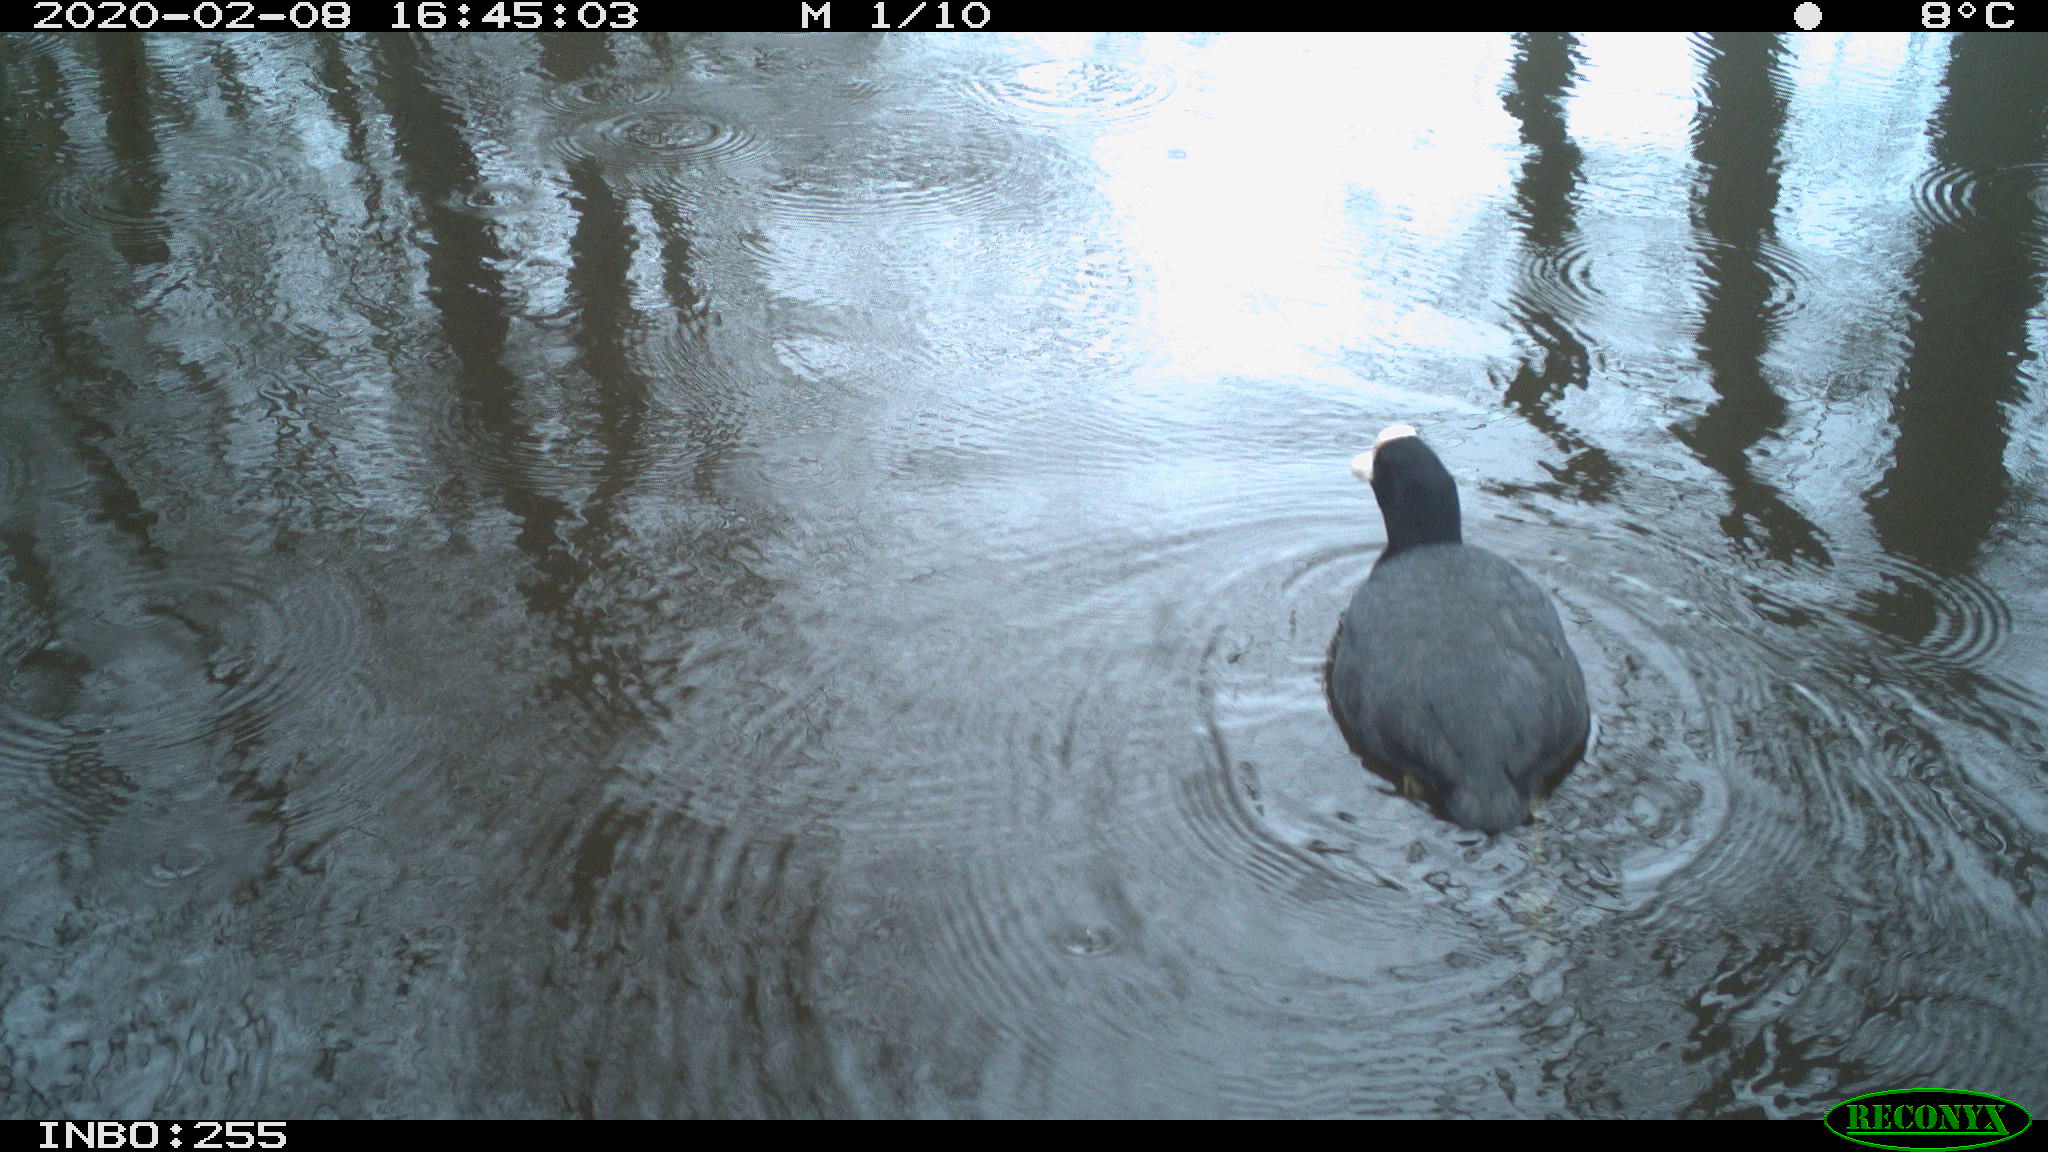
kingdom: Animalia
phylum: Chordata
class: Aves
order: Gruiformes
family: Rallidae
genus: Fulica
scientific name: Fulica atra
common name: Eurasian coot
